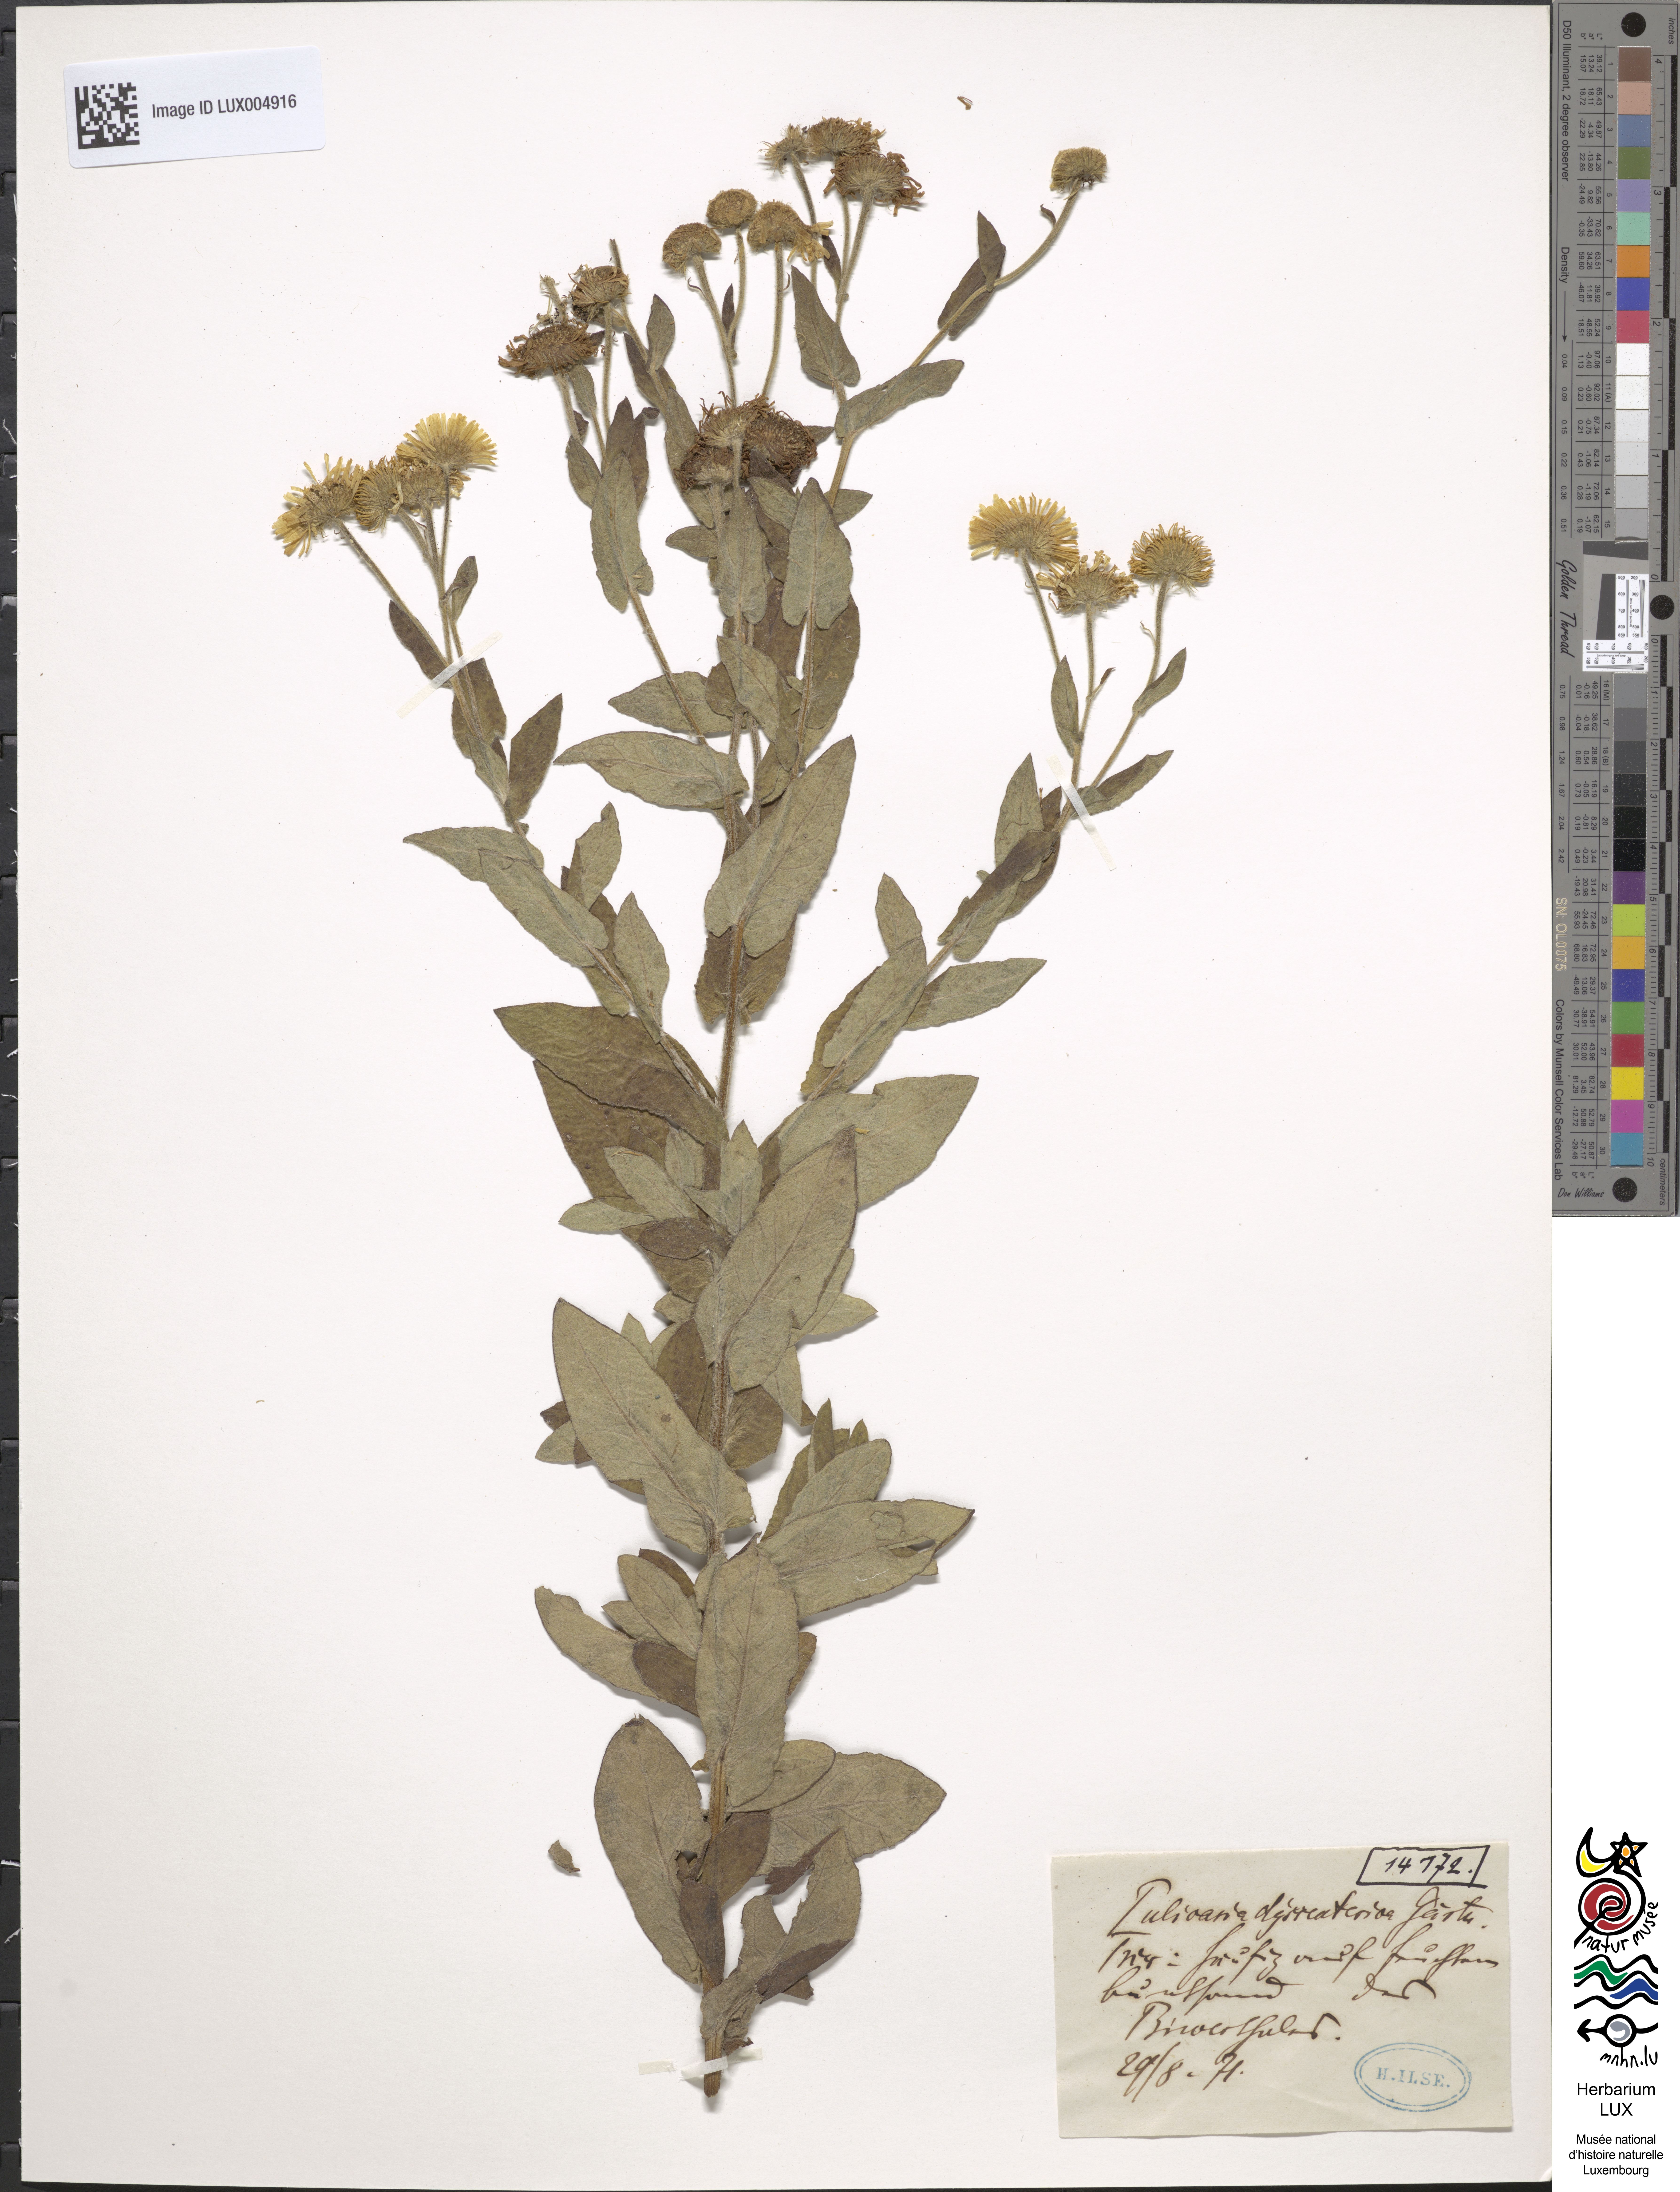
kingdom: Plantae
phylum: Tracheophyta
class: Magnoliopsida
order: Asterales
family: Asteraceae
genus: Pulicaria
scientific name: Pulicaria dysenterica
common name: Common fleabane
